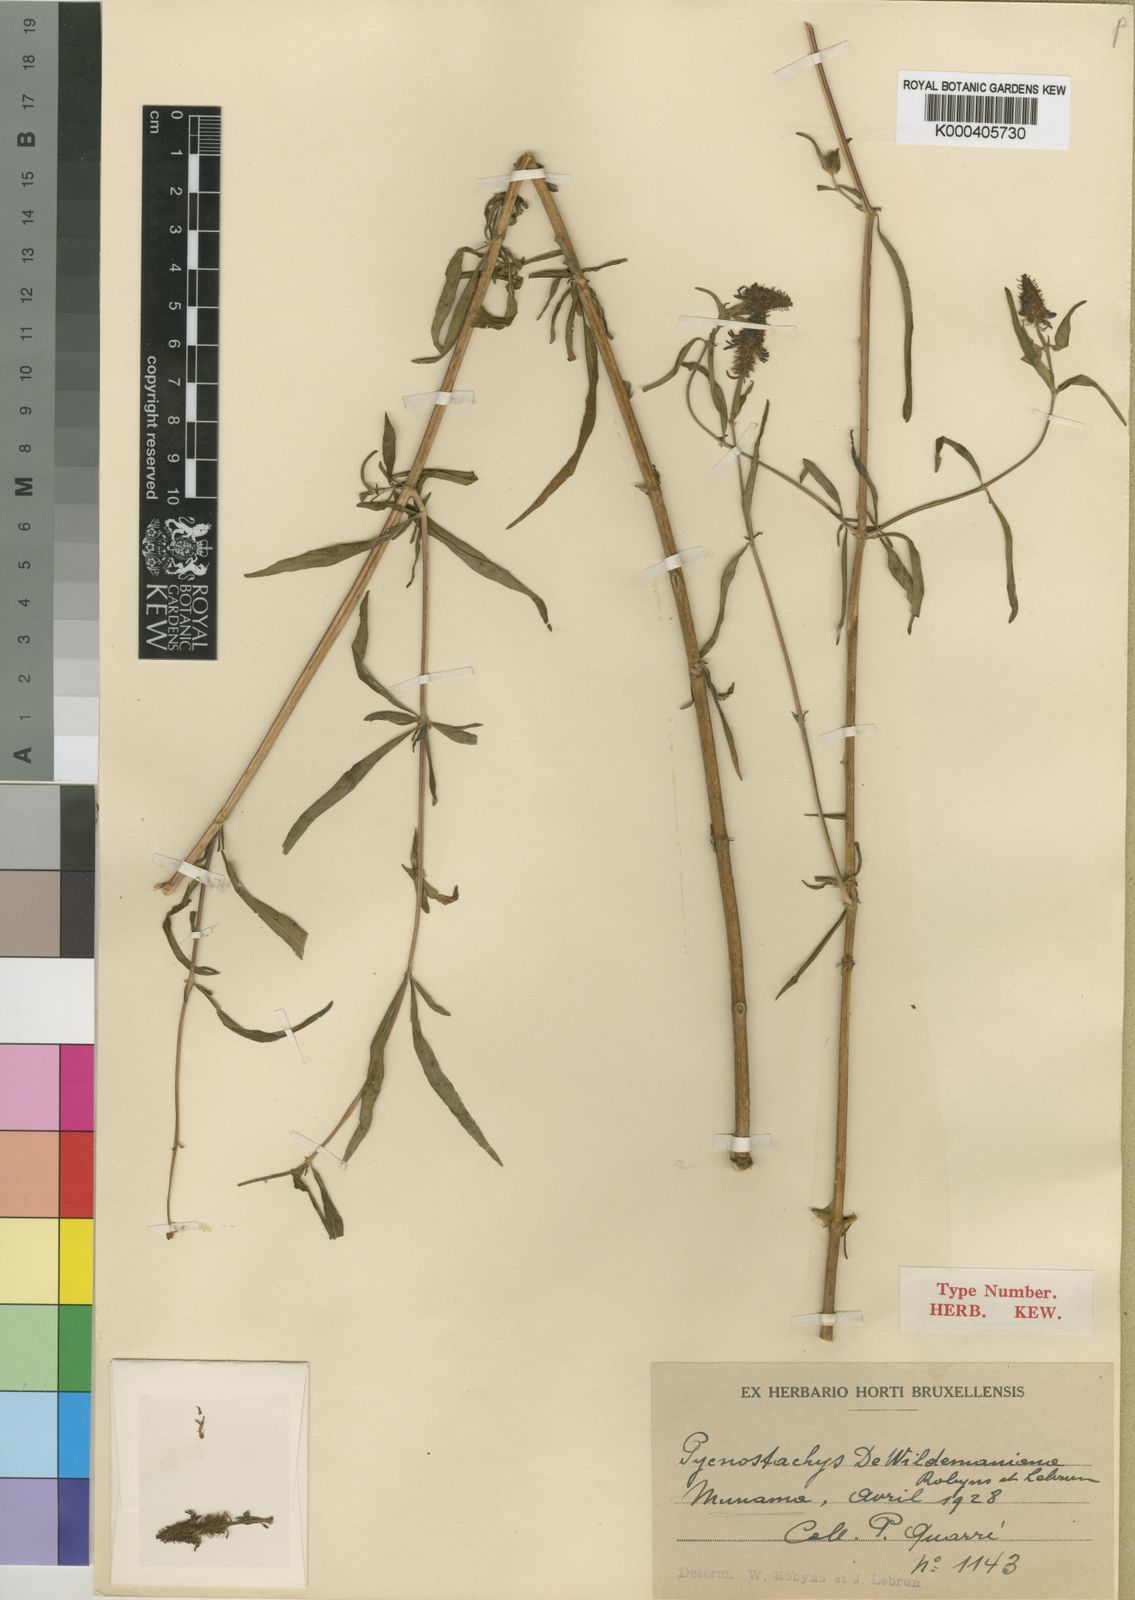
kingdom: Plantae
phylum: Tracheophyta
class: Magnoliopsida
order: Lamiales
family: Lamiaceae
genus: Coleus
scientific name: Coleus dewildemanianus
